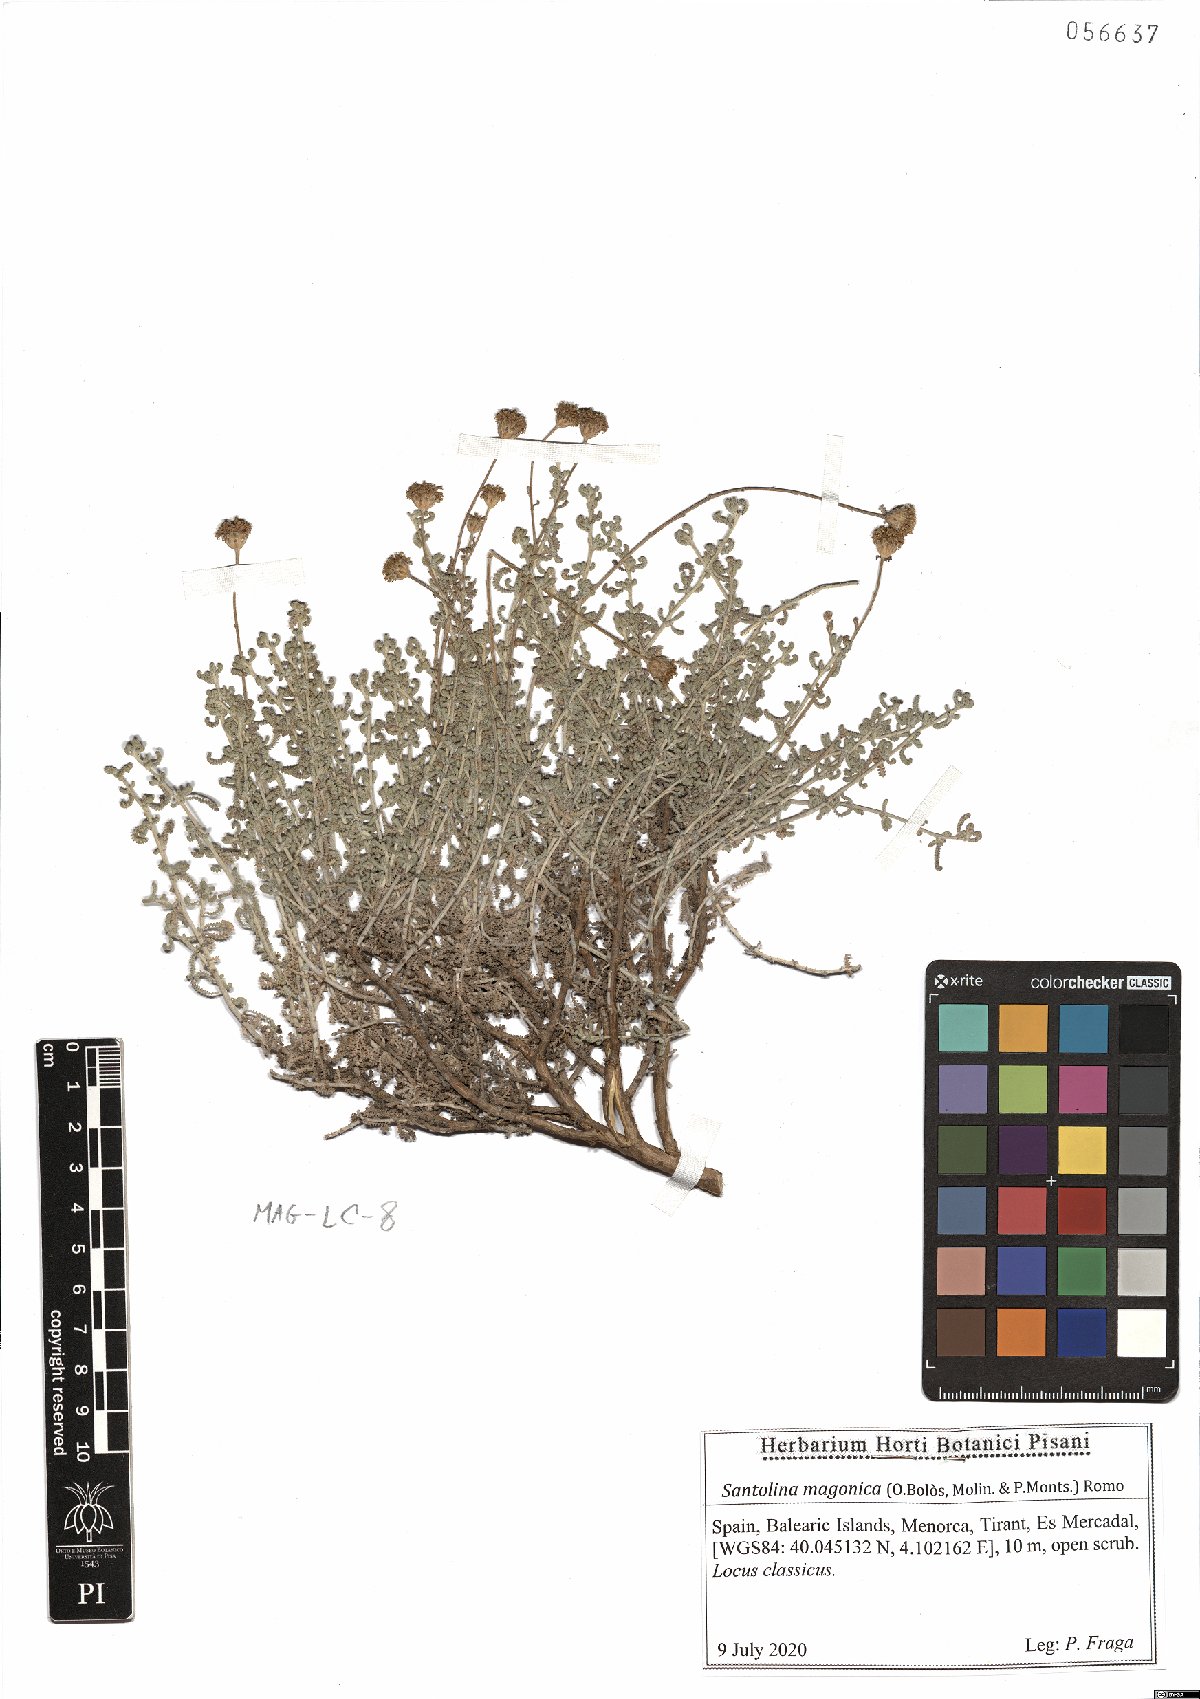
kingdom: Plantae
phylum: Tracheophyta
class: Magnoliopsida
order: Asterales
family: Asteraceae
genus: Santolina
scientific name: Santolina magonica
